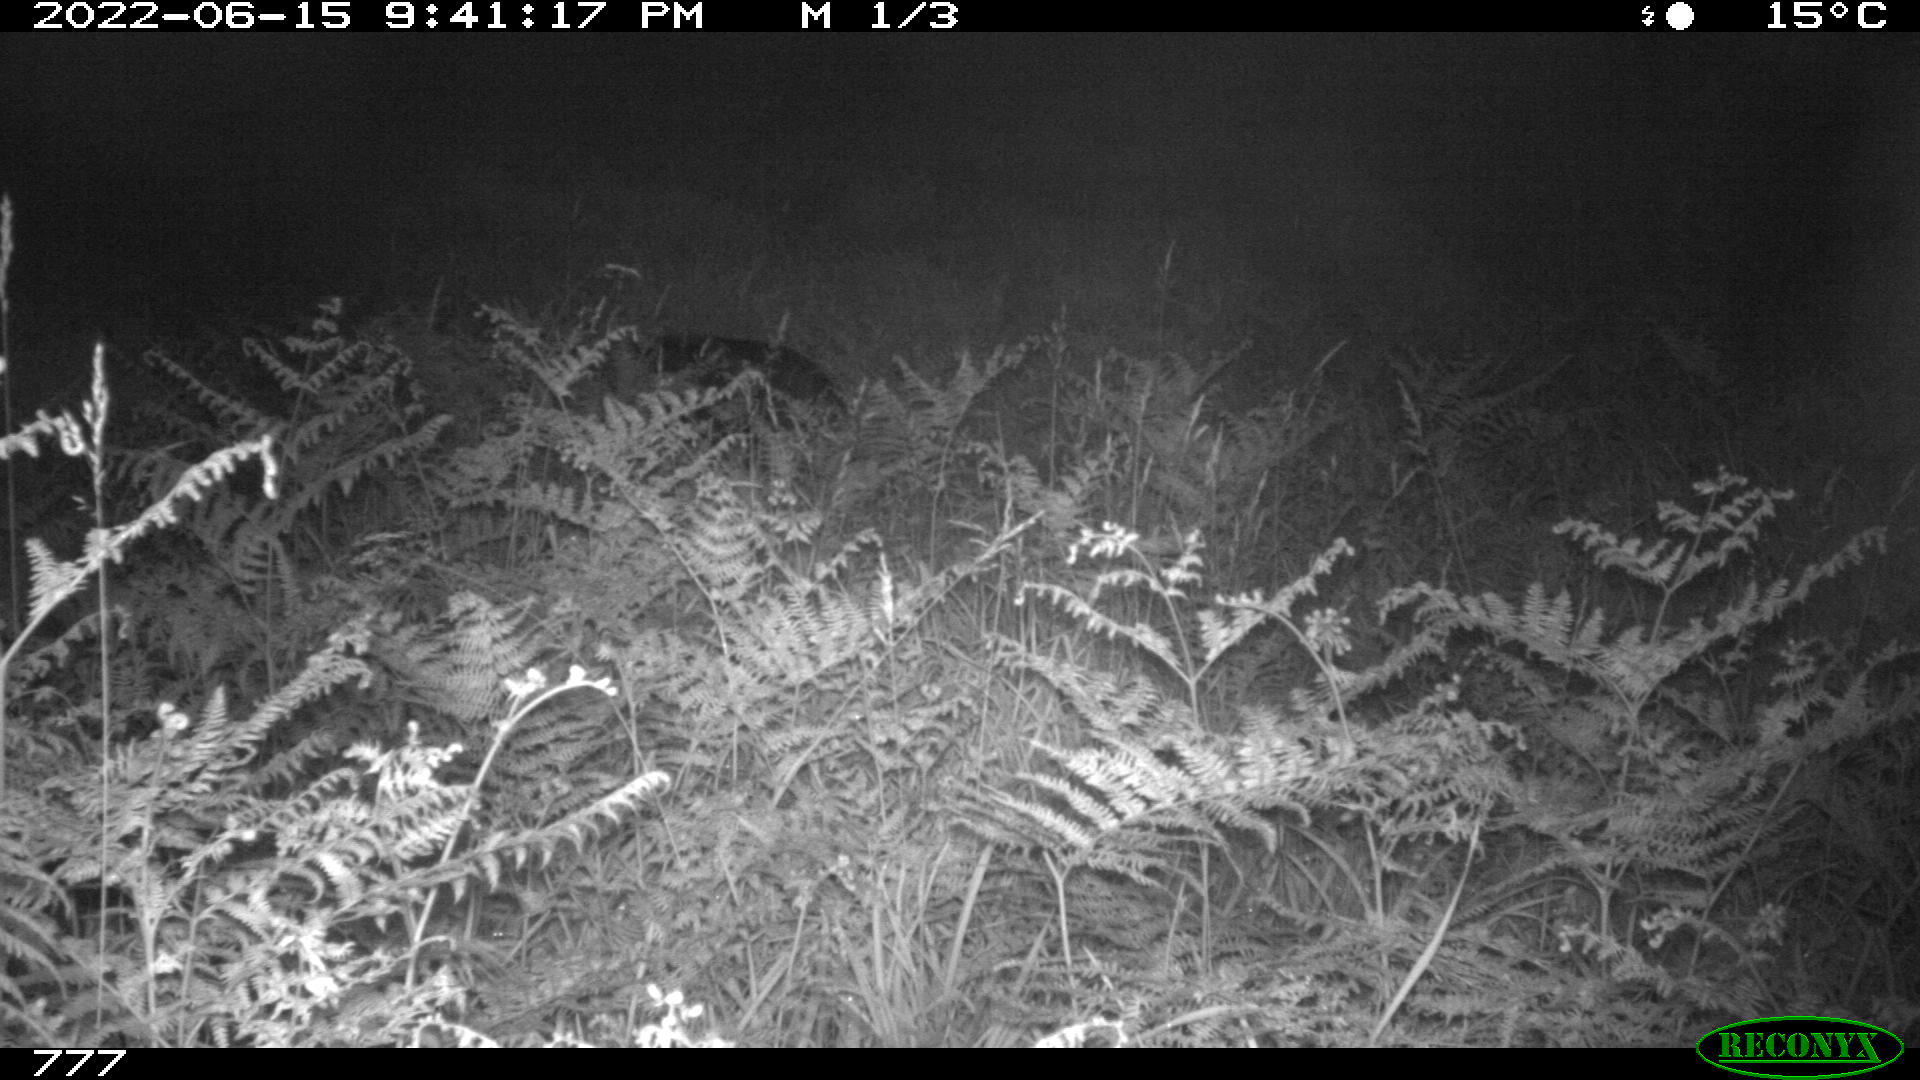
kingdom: Animalia
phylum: Chordata
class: Mammalia
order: Artiodactyla
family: Suidae
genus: Sus
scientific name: Sus scrofa
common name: Wild boar
